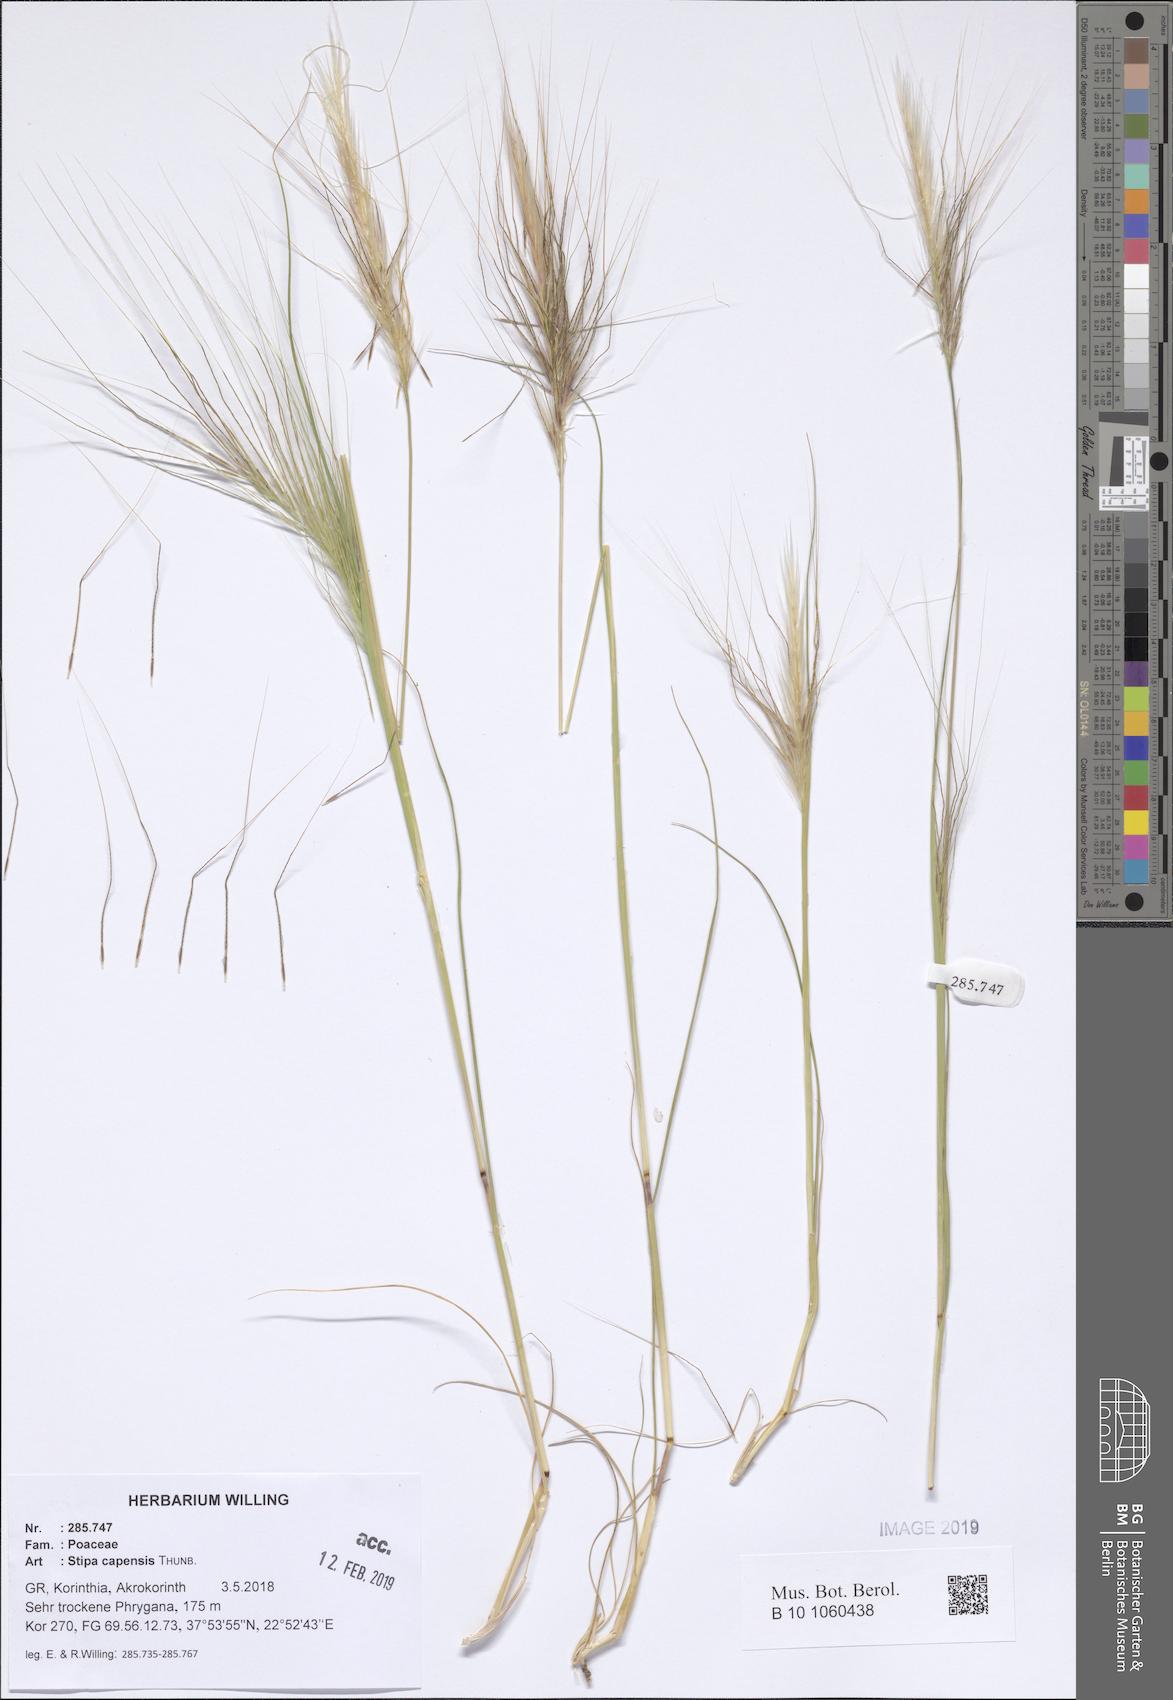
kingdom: Plantae
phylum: Tracheophyta
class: Liliopsida
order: Poales
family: Poaceae
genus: Stipellula
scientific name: Stipellula capensis
